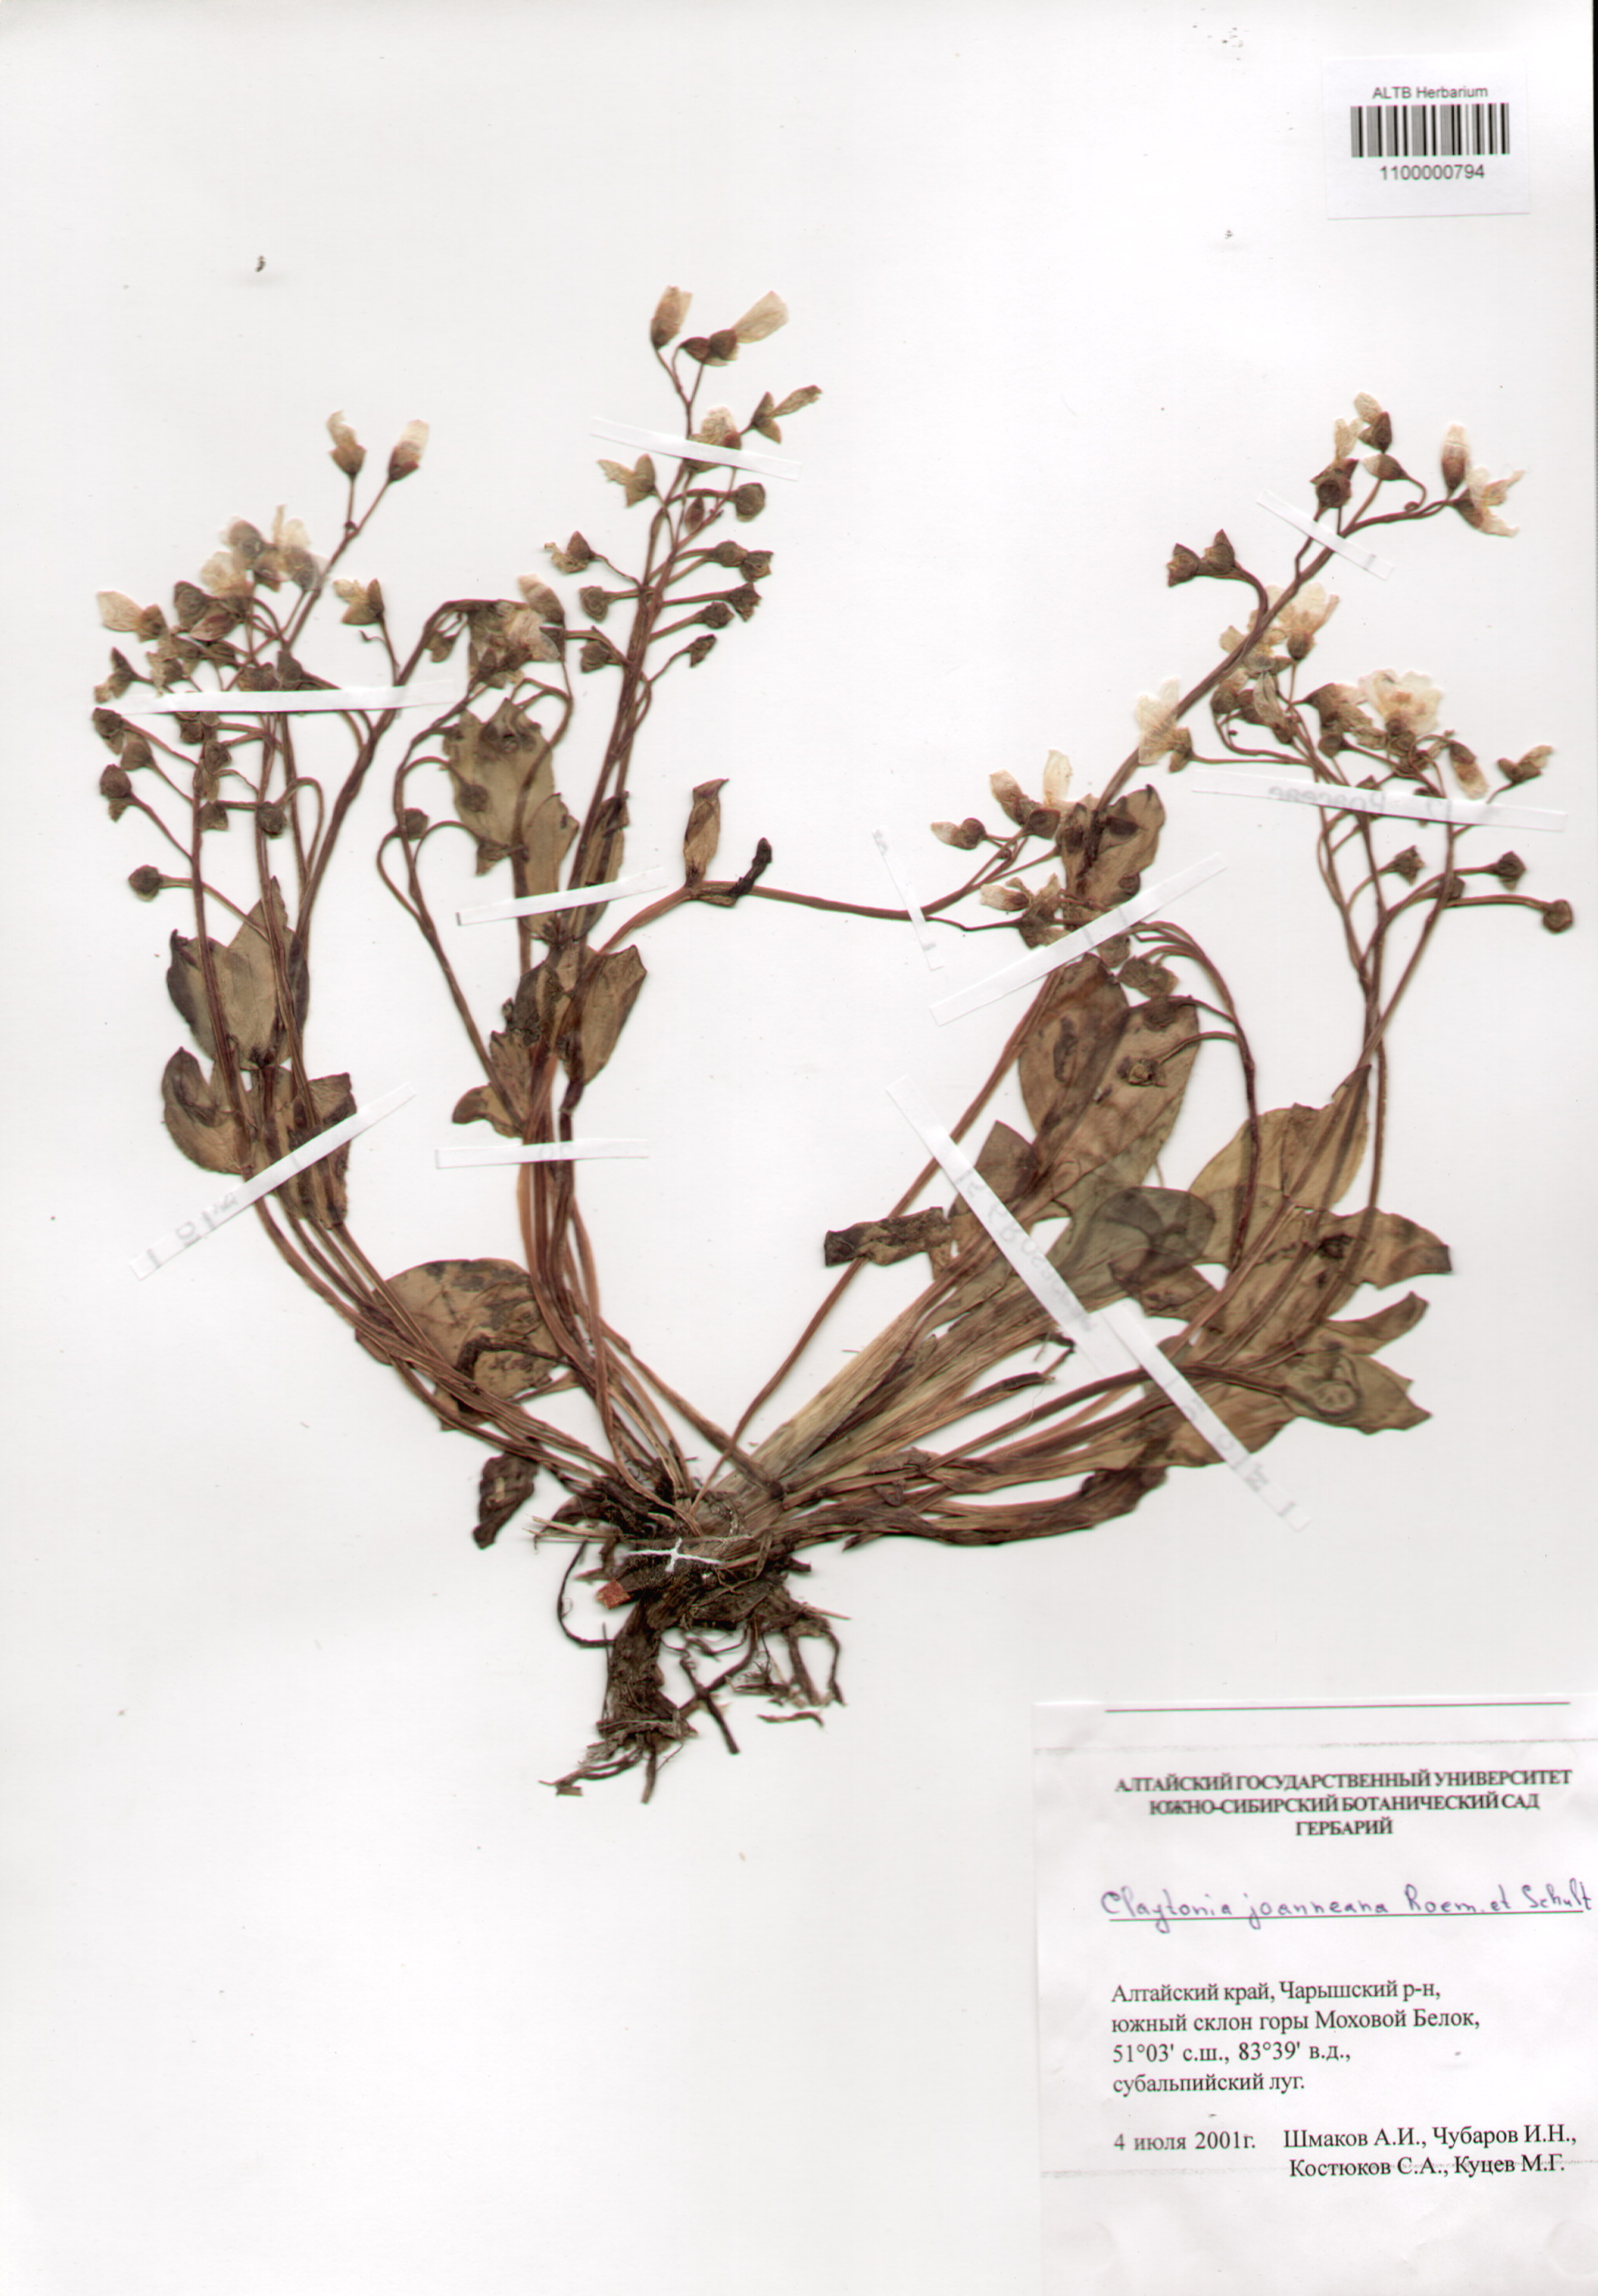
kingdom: Plantae
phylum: Tracheophyta
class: Magnoliopsida
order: Caryophyllales
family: Montiaceae
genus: Claytonia
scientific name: Claytonia joanneana
